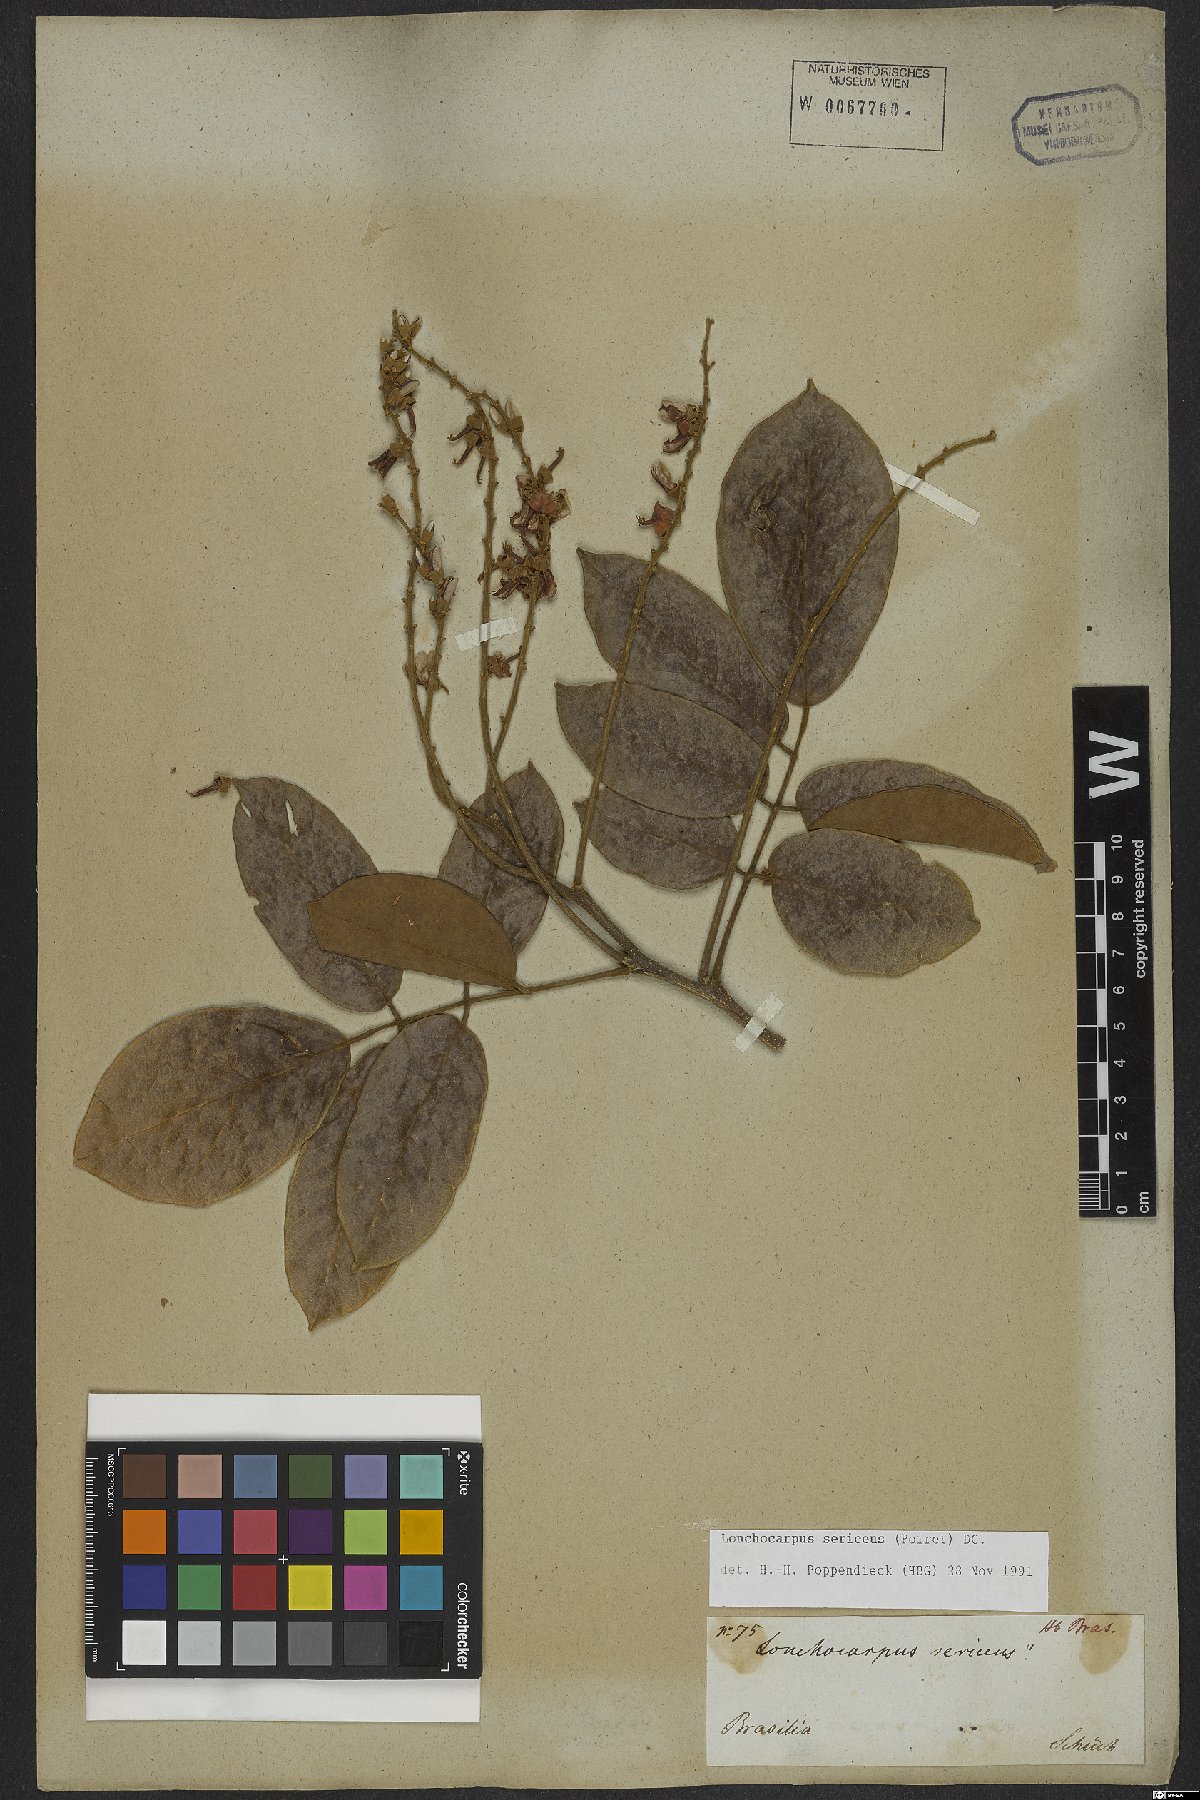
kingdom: Plantae
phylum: Tracheophyta
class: Magnoliopsida
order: Fabales
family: Fabaceae
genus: Lonchocarpus
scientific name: Lonchocarpus sericeus
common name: Savonette
